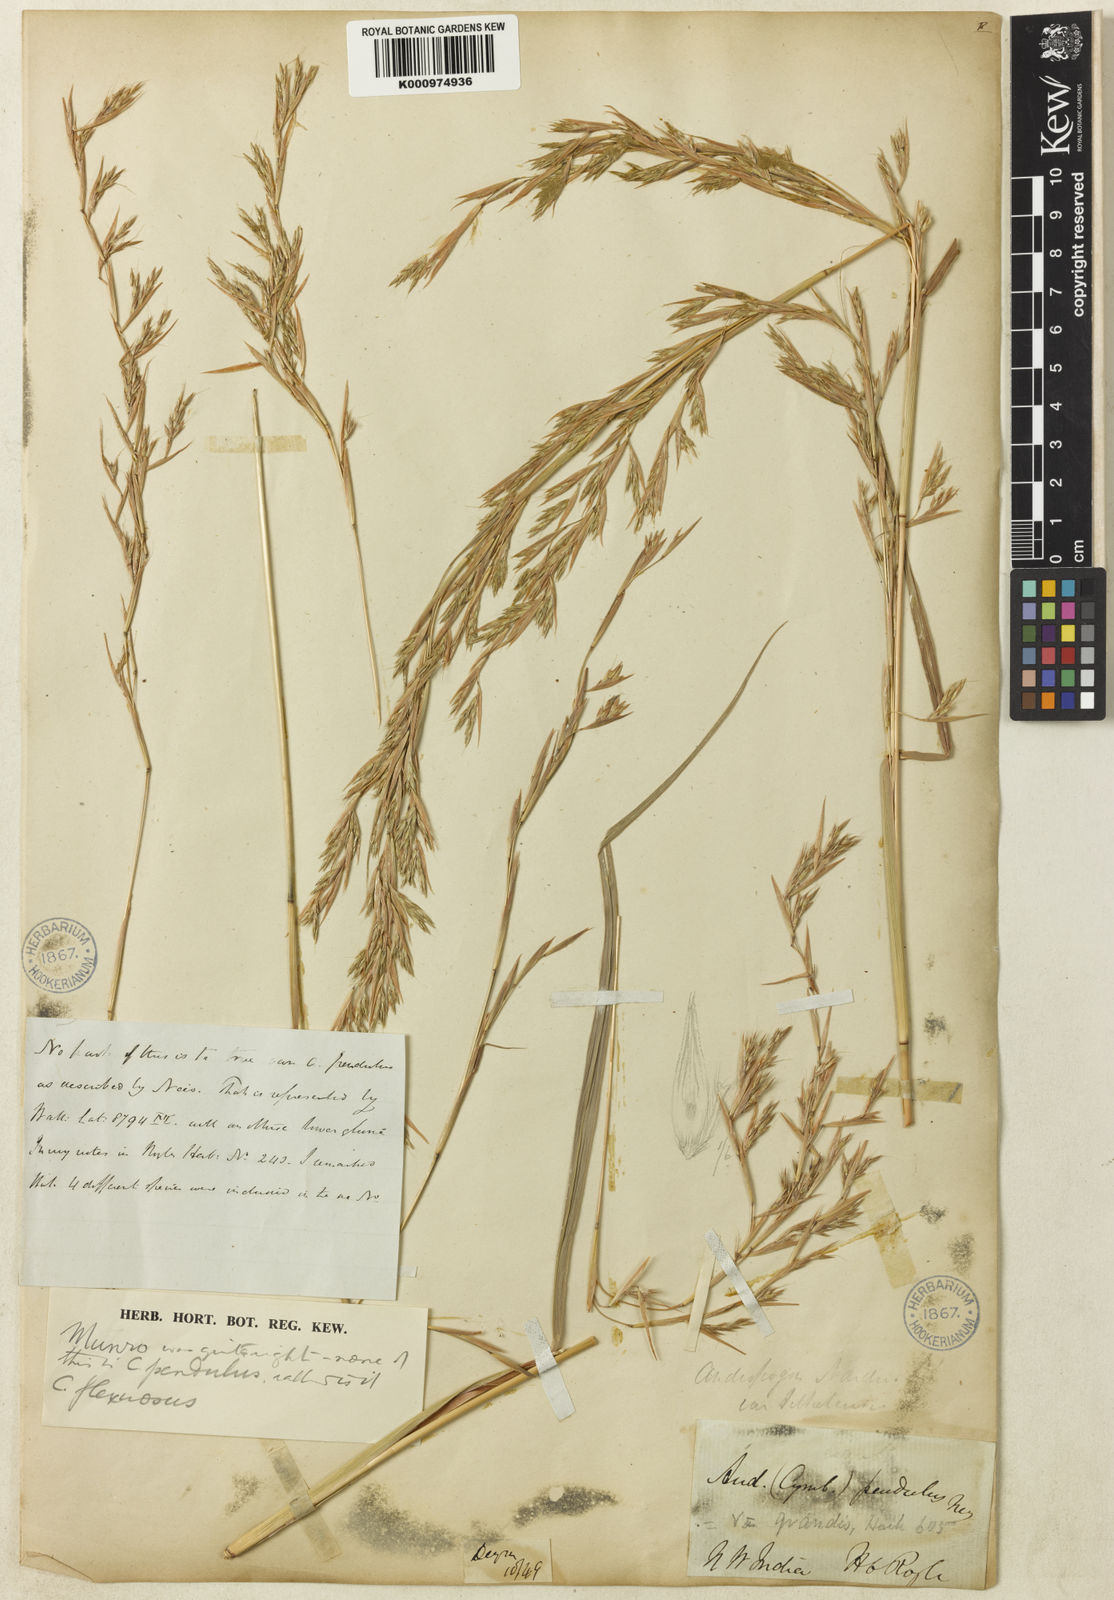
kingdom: Plantae
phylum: Tracheophyta
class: Liliopsida
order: Poales
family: Poaceae
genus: Cymbopogon
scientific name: Cymbopogon pendulus
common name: Jammu lemongrass
